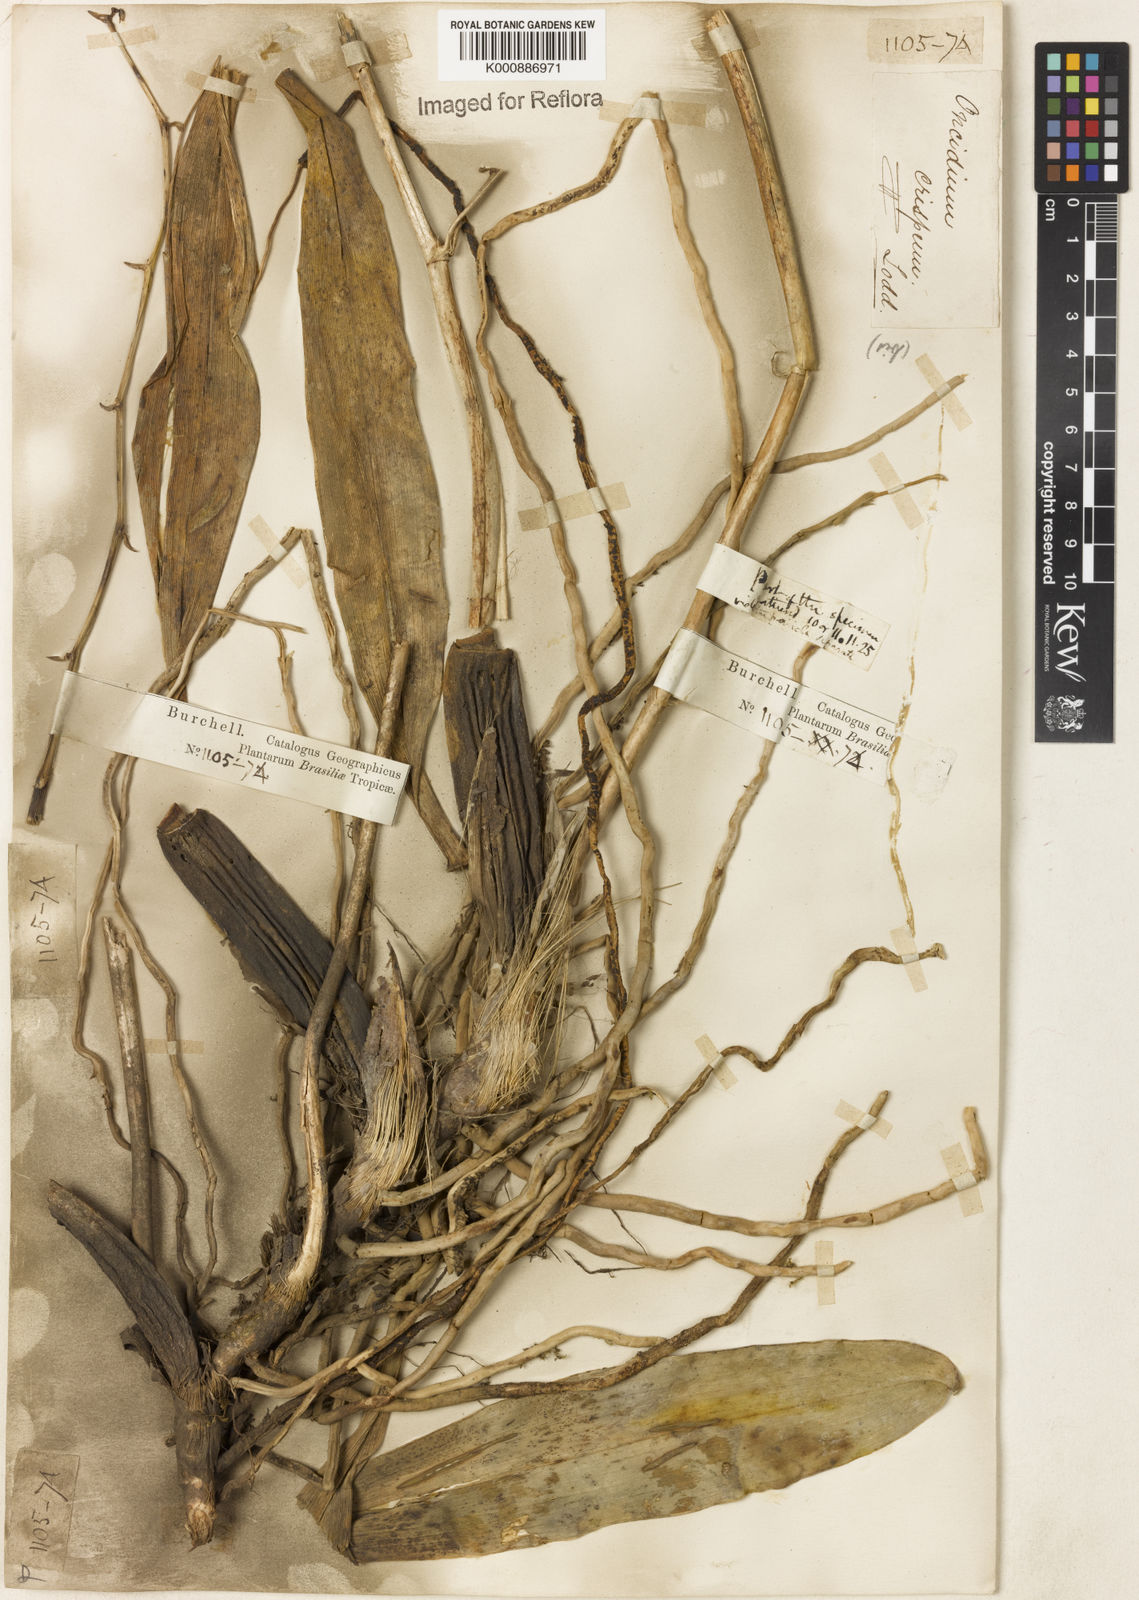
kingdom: Plantae
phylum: Tracheophyta
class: Liliopsida
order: Asparagales
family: Orchidaceae
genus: Gomesa
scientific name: Gomesa imperatoris-maximiliani
